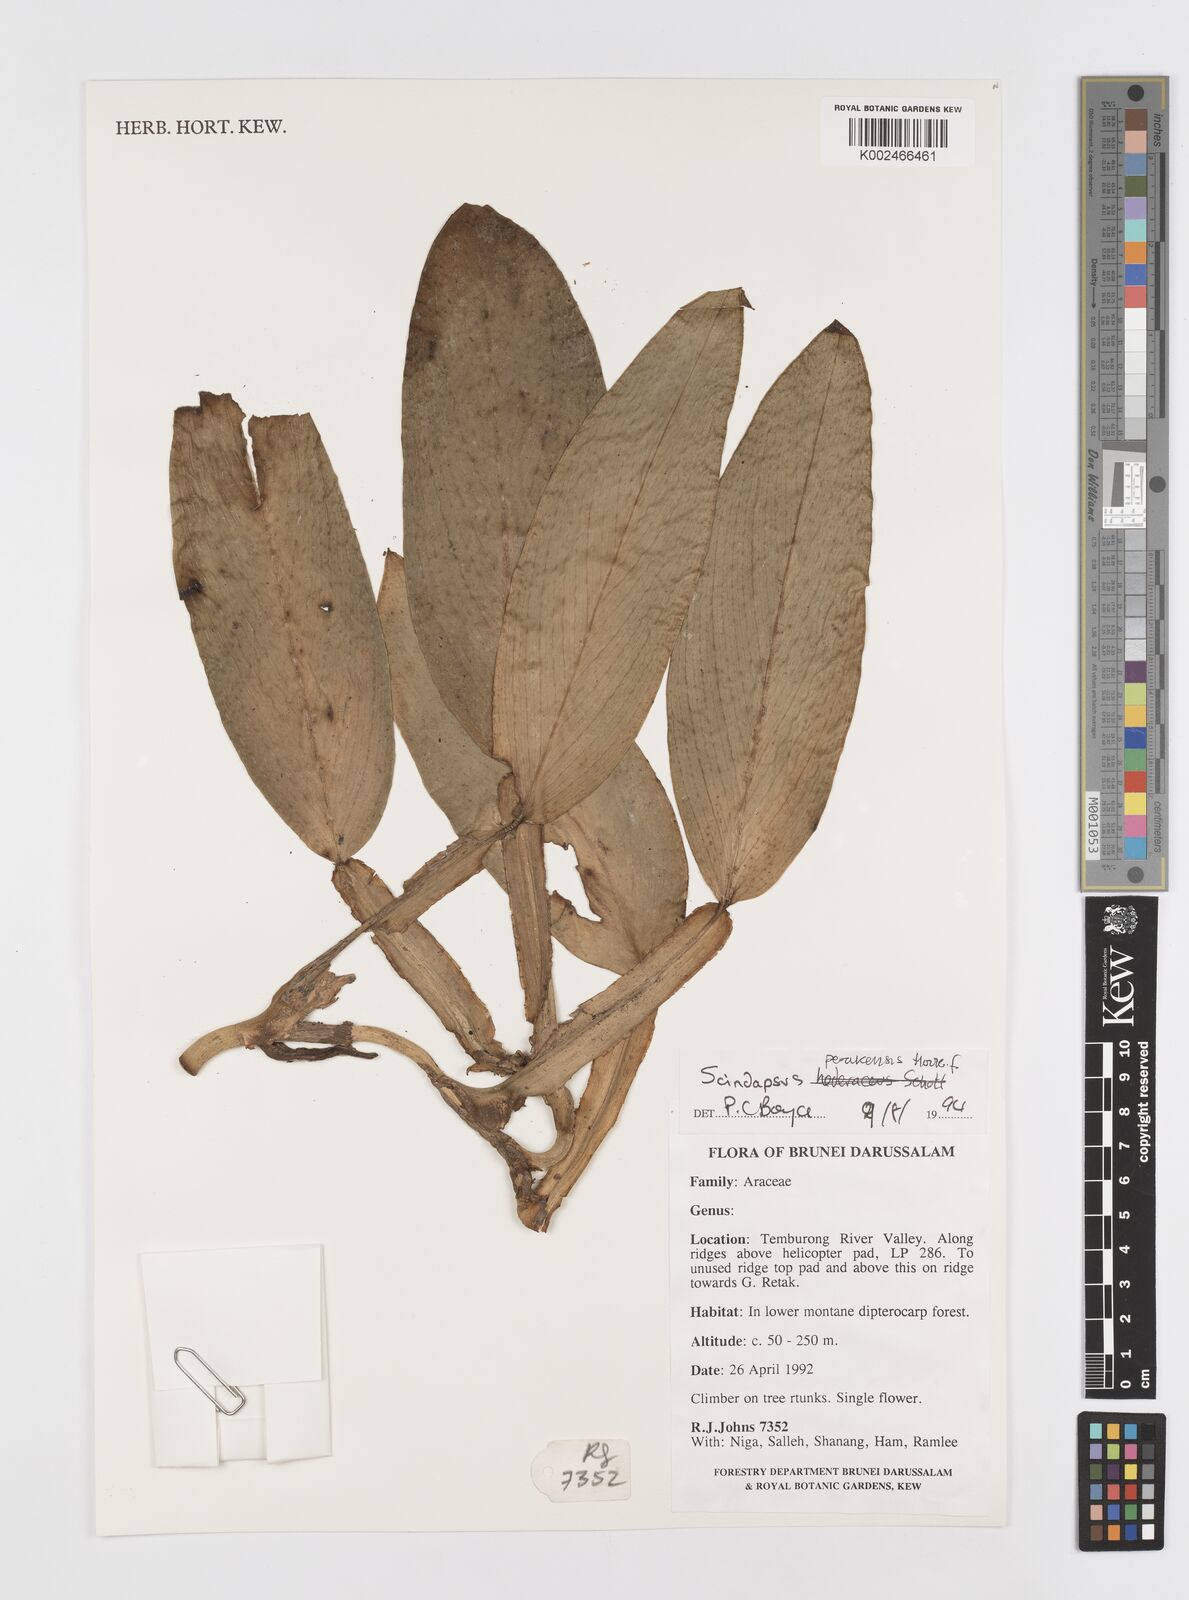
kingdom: Plantae
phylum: Tracheophyta
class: Liliopsida
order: Alismatales
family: Araceae
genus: Scindapsus
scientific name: Scindapsus longistipitatus
